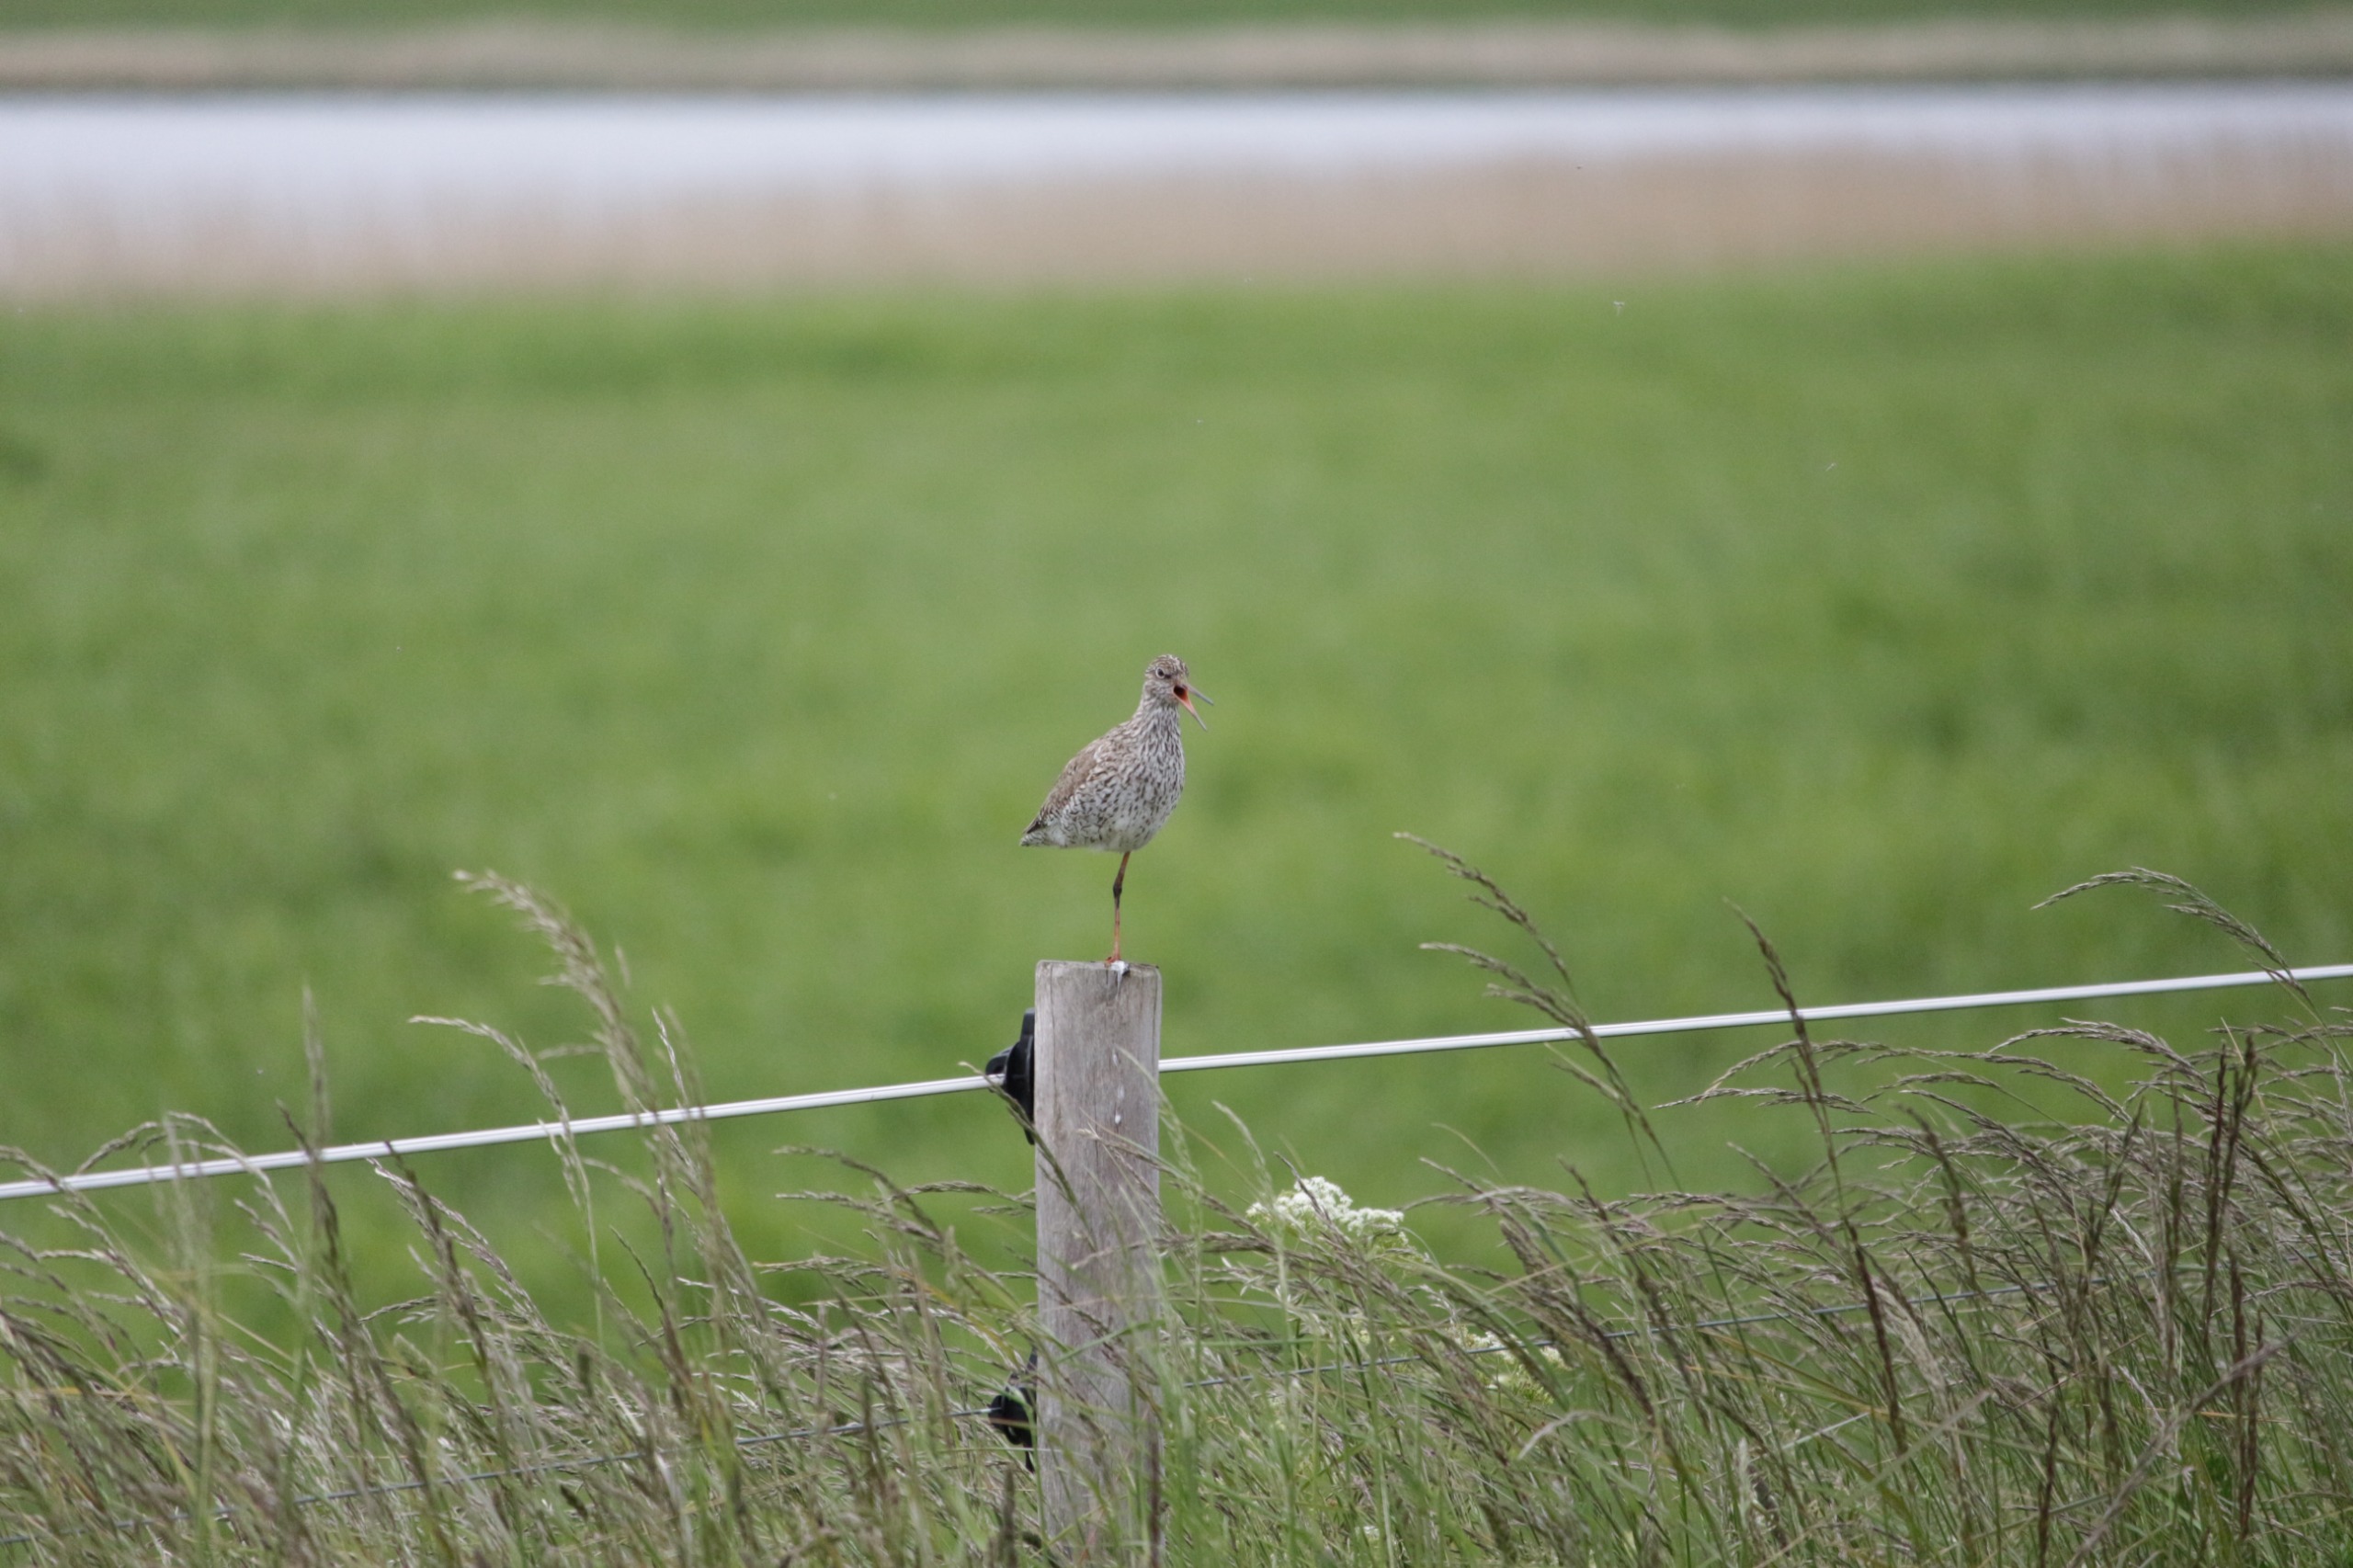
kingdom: Animalia
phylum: Chordata
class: Aves
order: Charadriiformes
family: Scolopacidae
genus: Tringa
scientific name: Tringa totanus
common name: Rødben
